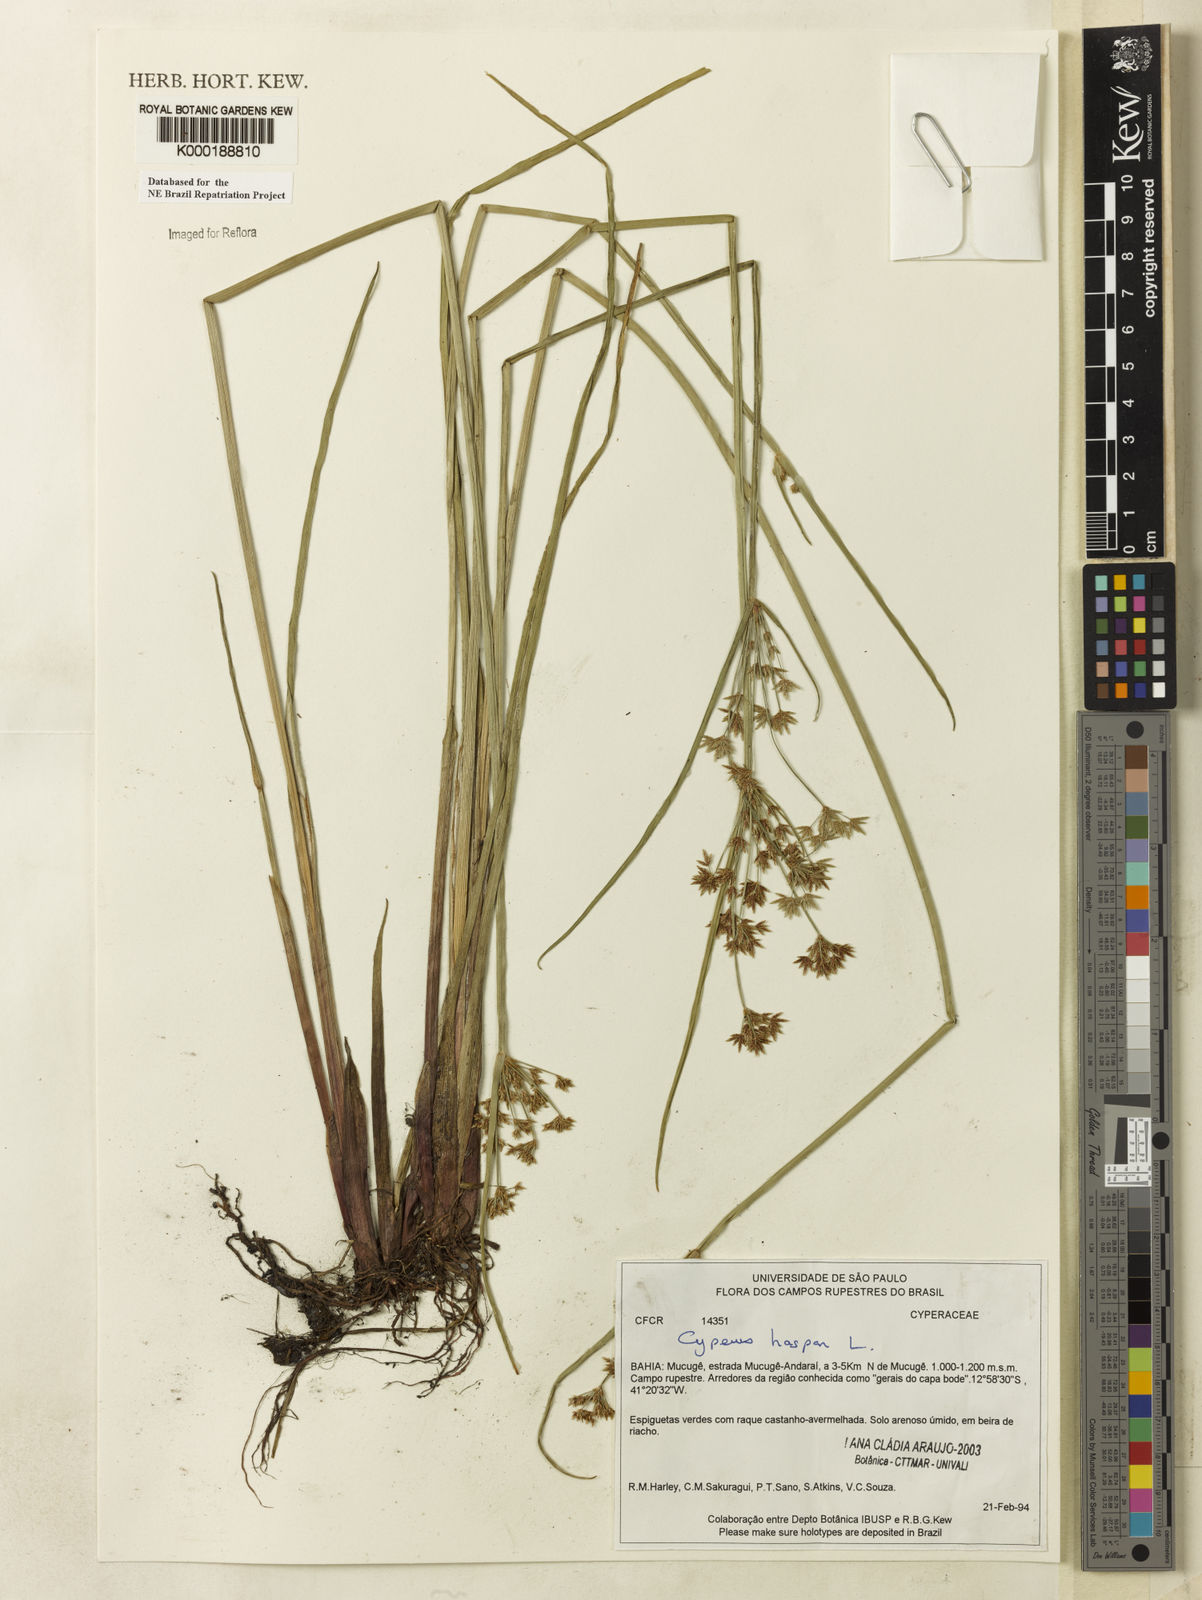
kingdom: Plantae
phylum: Tracheophyta
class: Liliopsida
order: Poales
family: Cyperaceae
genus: Cyperus
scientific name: Cyperus haspan
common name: Haspan flatsedge
